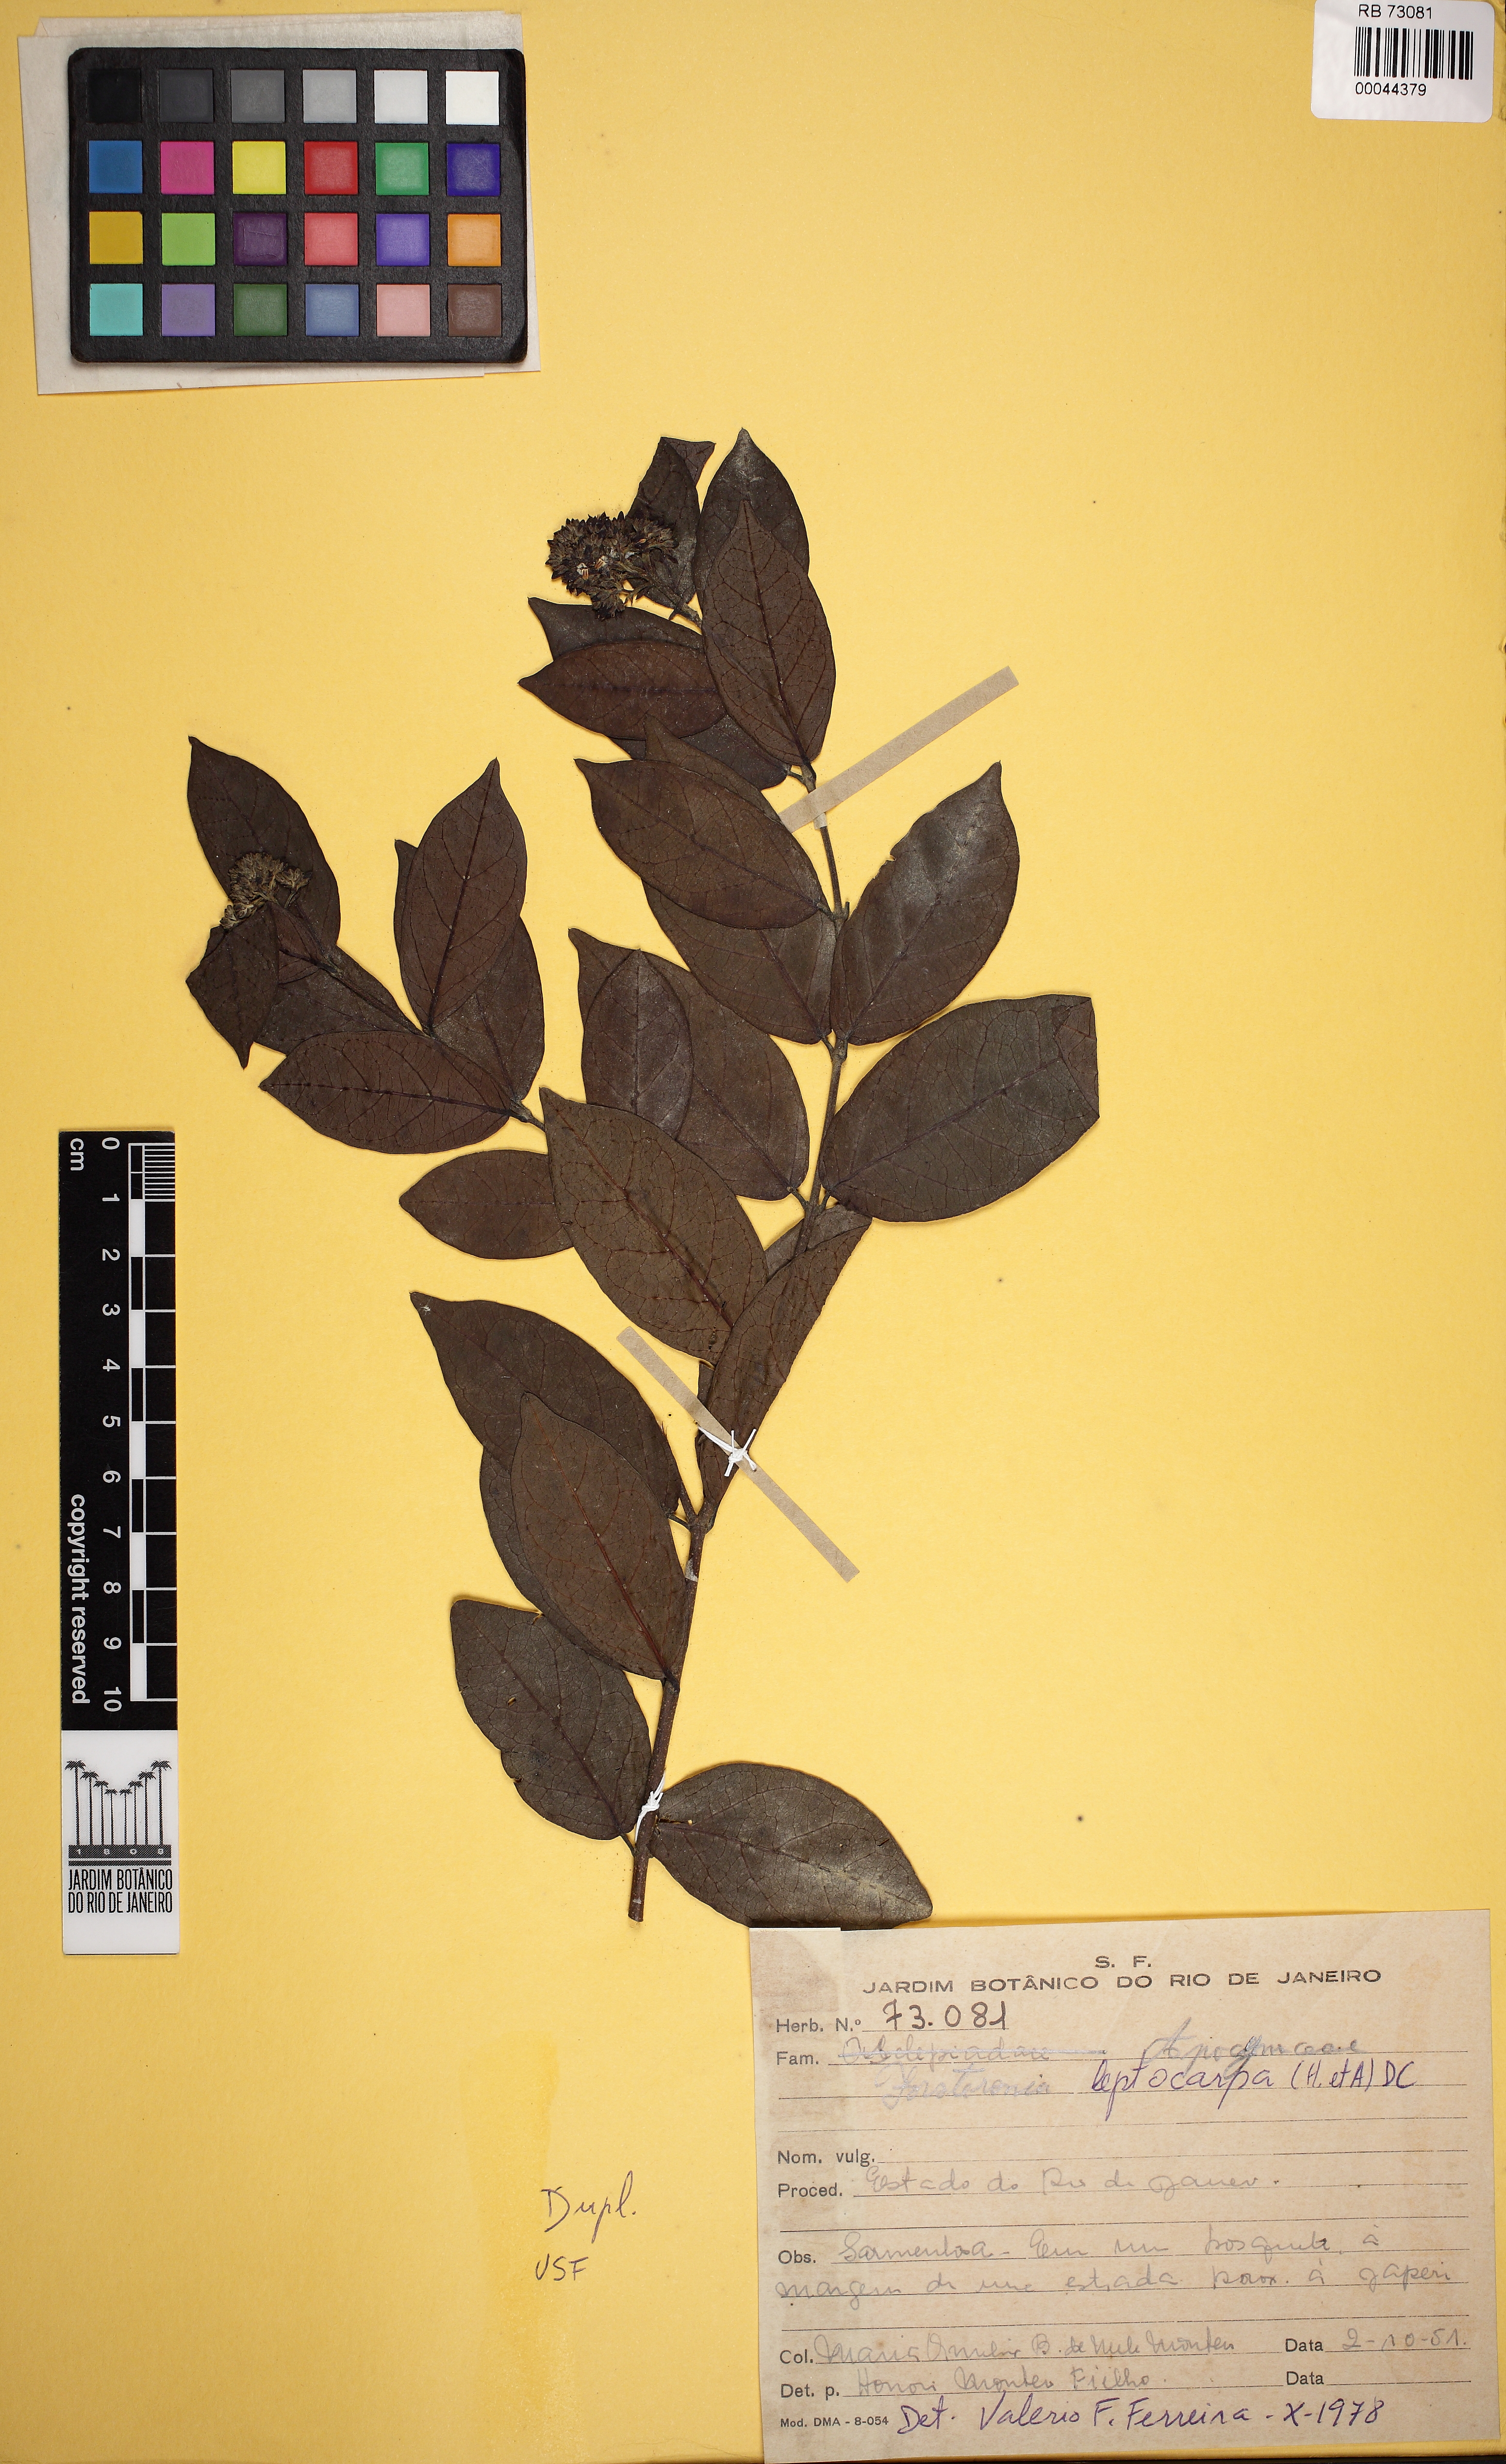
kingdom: Plantae
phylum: Tracheophyta
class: Magnoliopsida
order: Gentianales
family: Apocynaceae
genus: Forsteronia
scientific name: Forsteronia leptocarpa
